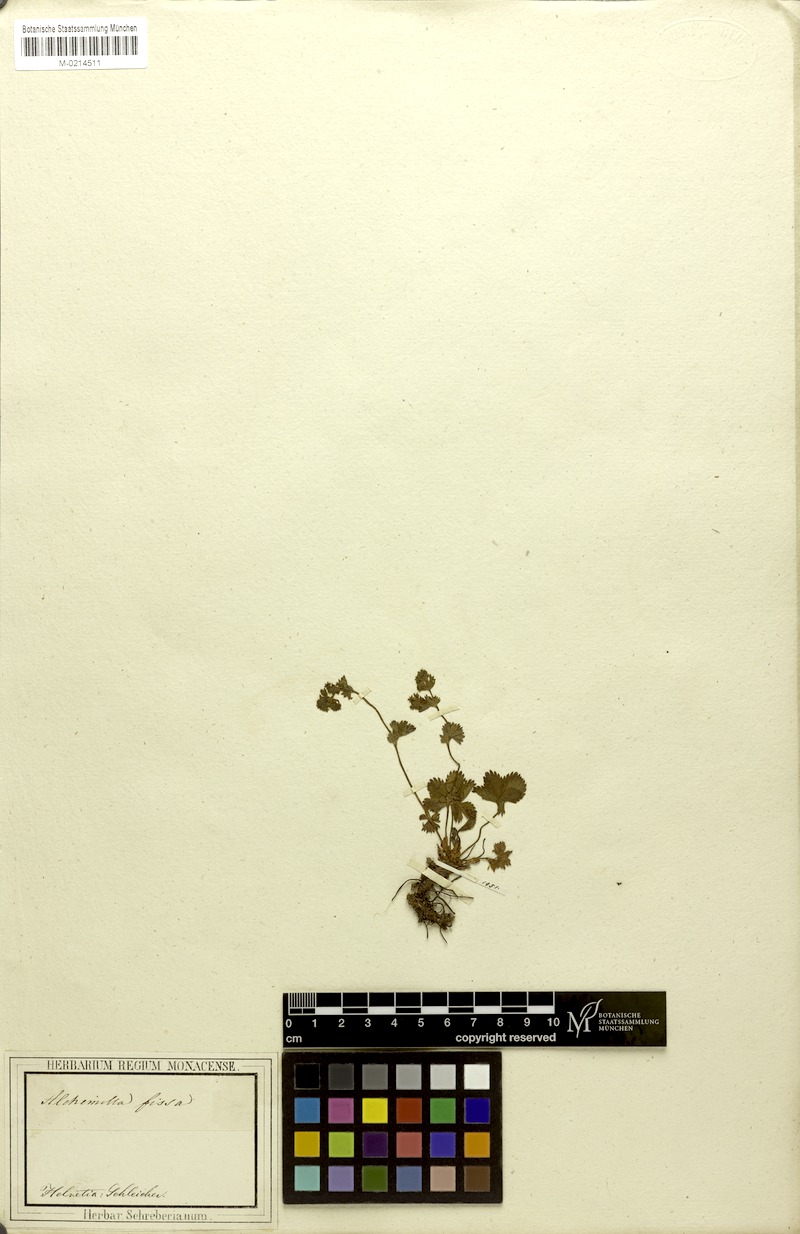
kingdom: Plantae
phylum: Tracheophyta
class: Magnoliopsida
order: Rosales
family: Rosaceae
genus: Alchemilla
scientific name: Alchemilla fissa
